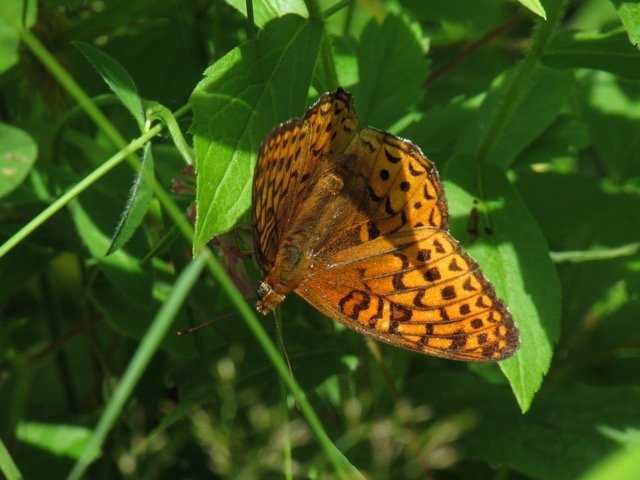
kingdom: Animalia
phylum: Arthropoda
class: Insecta
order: Lepidoptera
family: Nymphalidae
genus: Speyeria
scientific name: Speyeria atlantis
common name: Atlantis Fritillary
